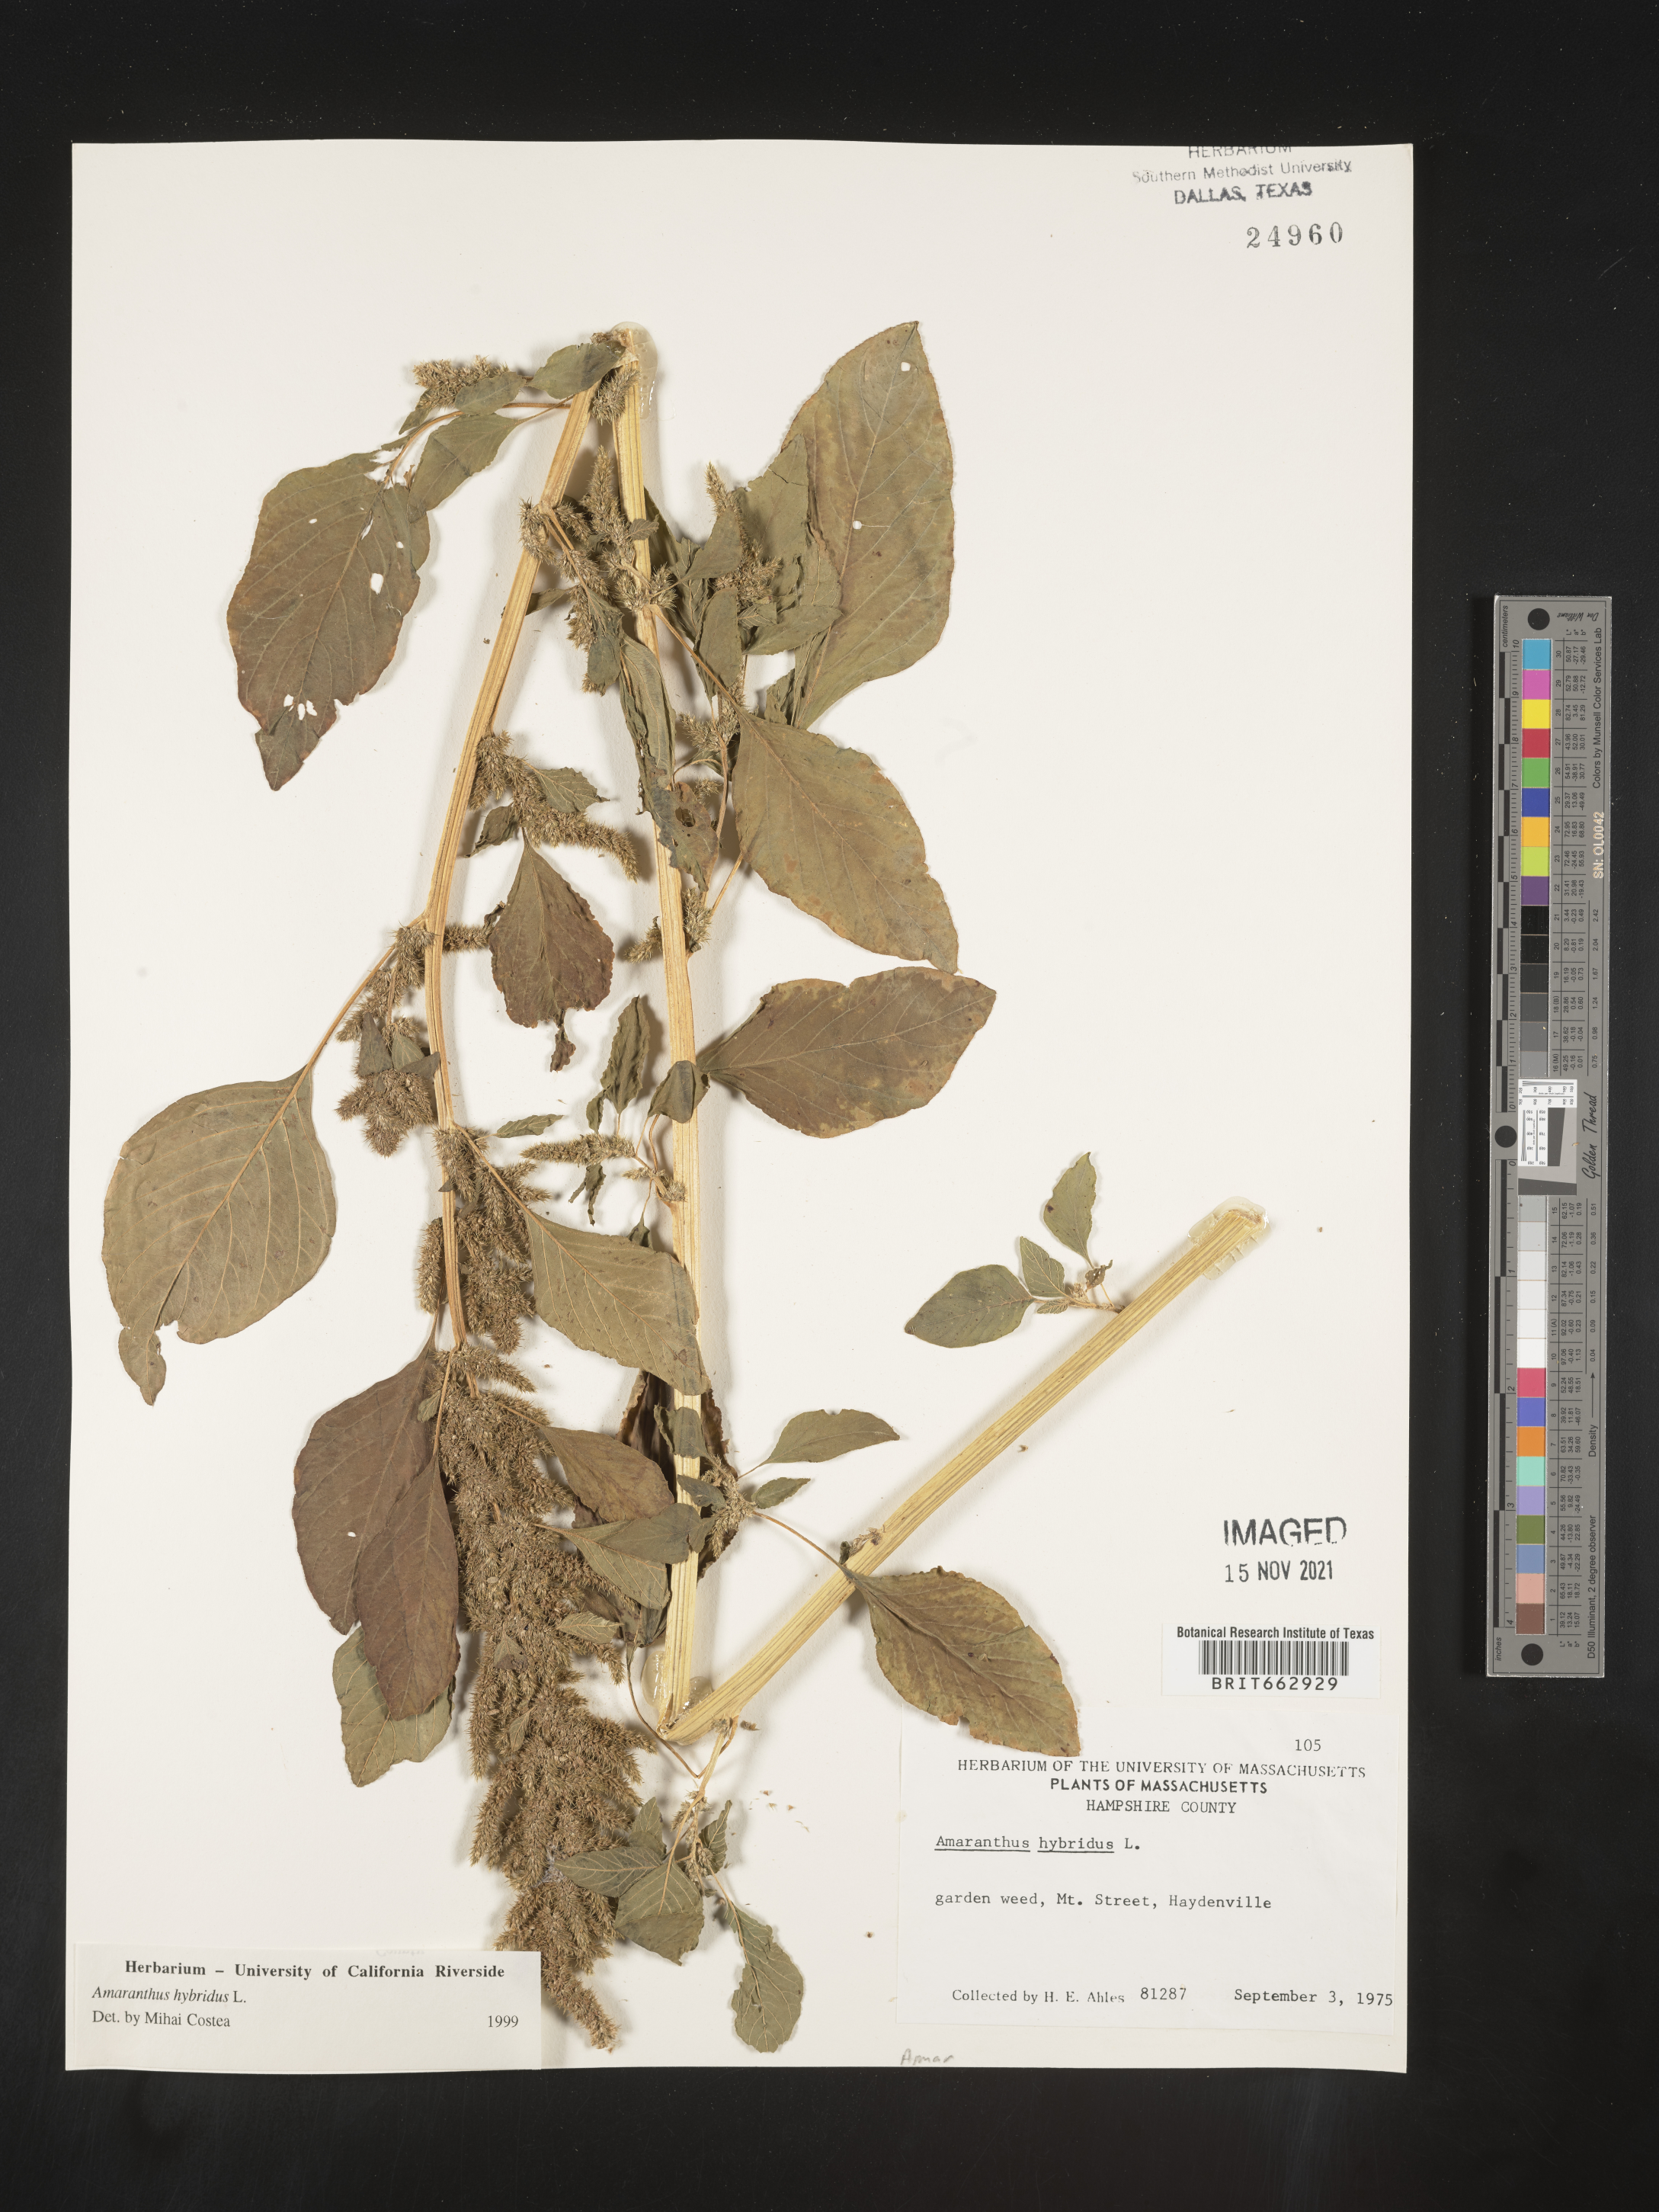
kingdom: Plantae
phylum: Tracheophyta
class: Magnoliopsida
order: Caryophyllales
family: Amaranthaceae
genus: Amaranthus
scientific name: Amaranthus hybridus
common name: Green amaranth
